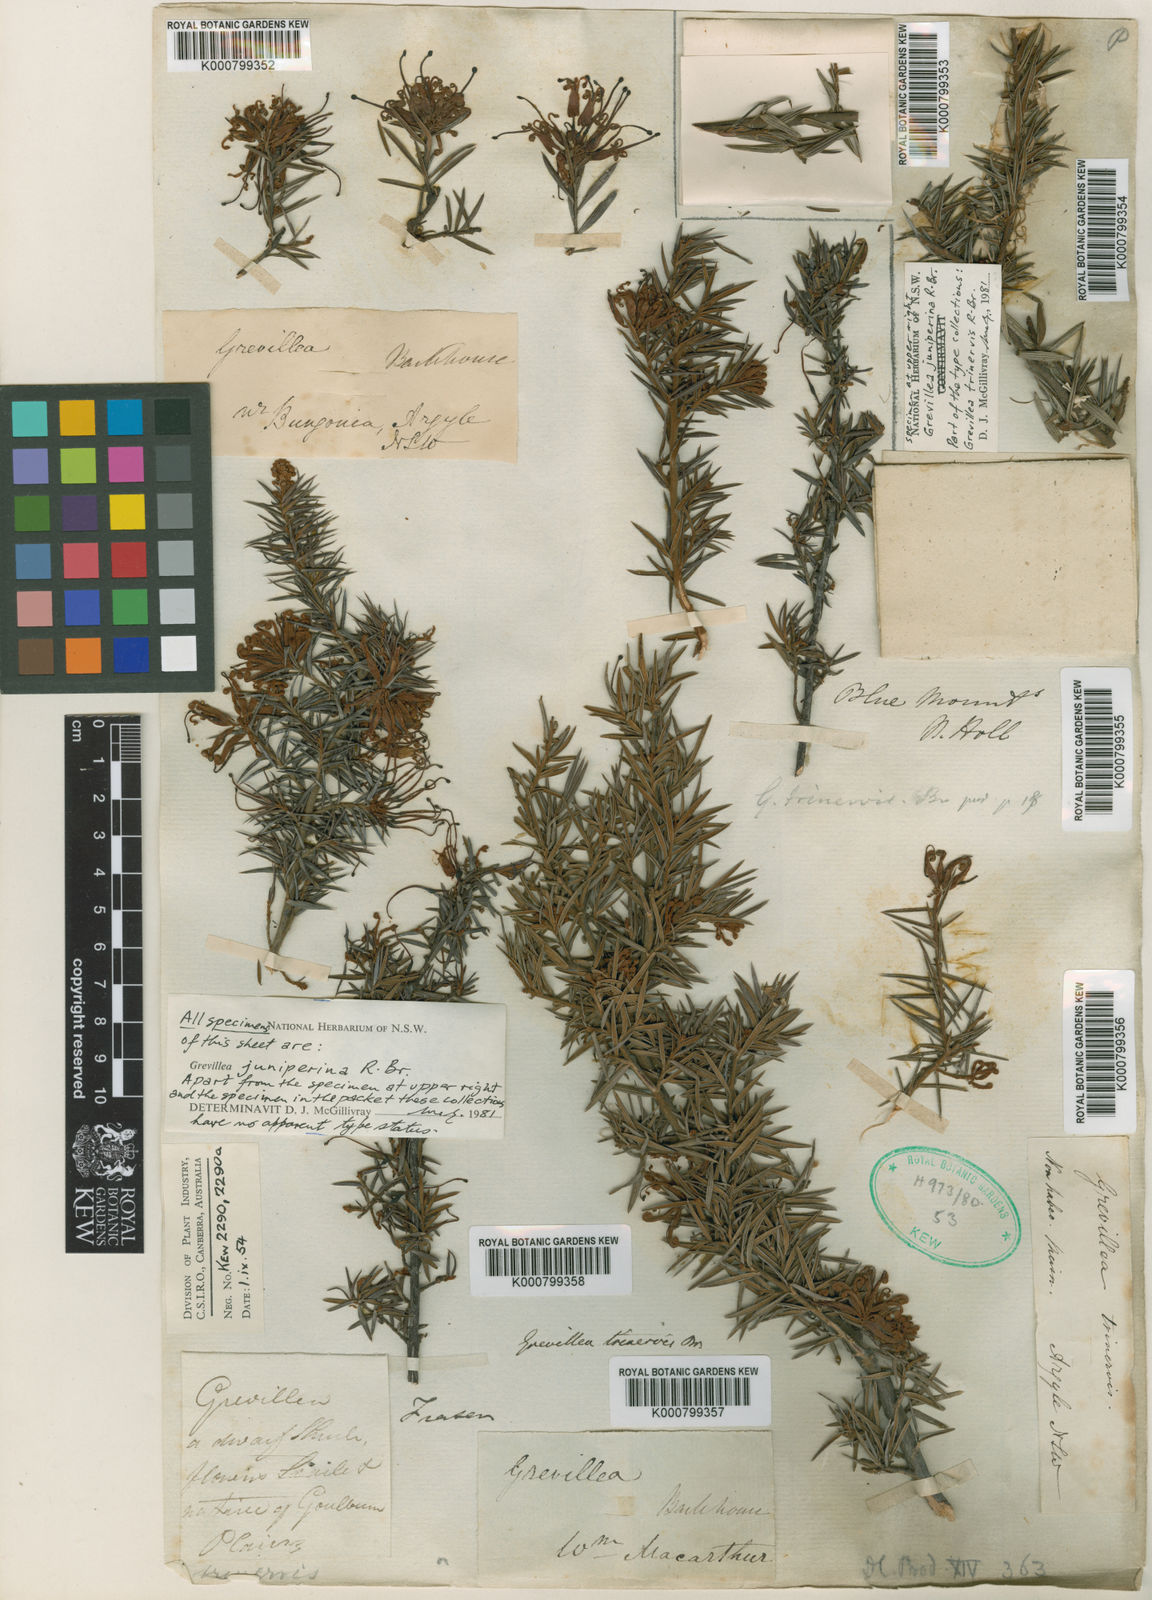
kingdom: Plantae
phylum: Tracheophyta
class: Magnoliopsida
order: Proteales
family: Proteaceae
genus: Grevillea
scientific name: Grevillea juniperina
